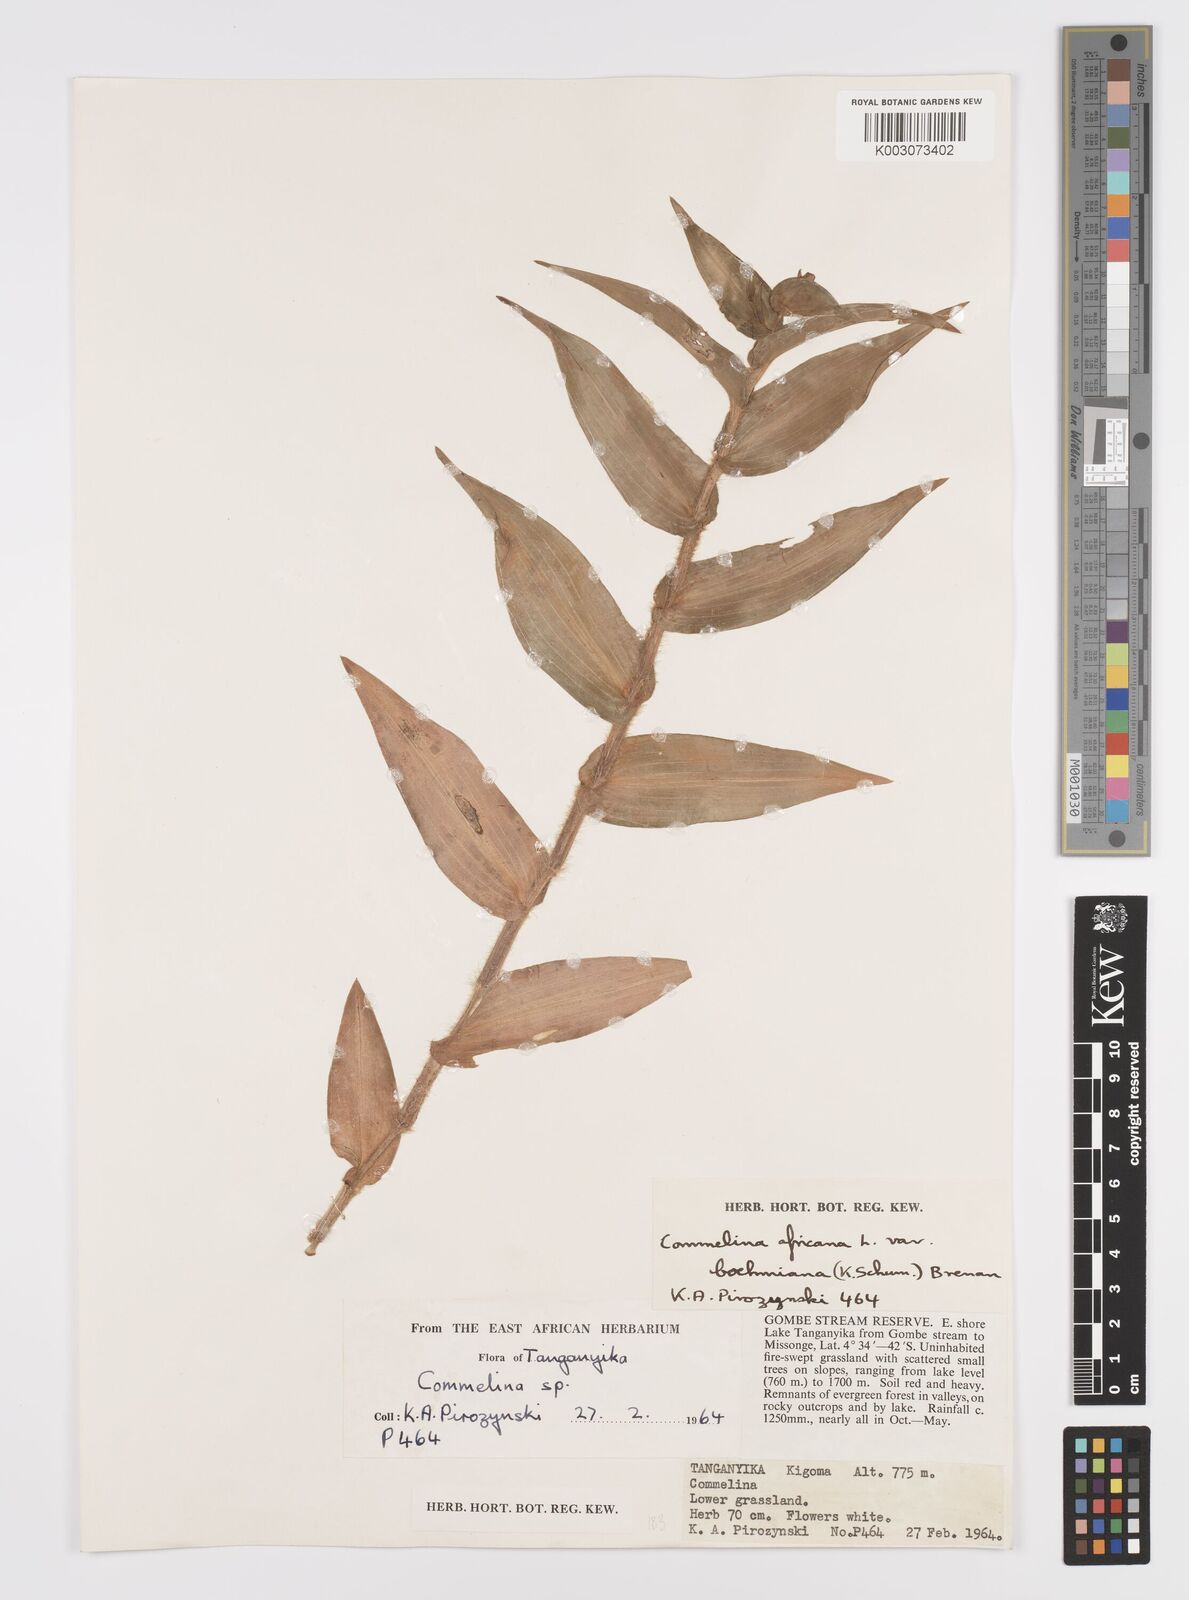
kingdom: Plantae
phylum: Tracheophyta
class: Liliopsida
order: Commelinales
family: Commelinaceae
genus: Commelina
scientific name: Commelina africana
